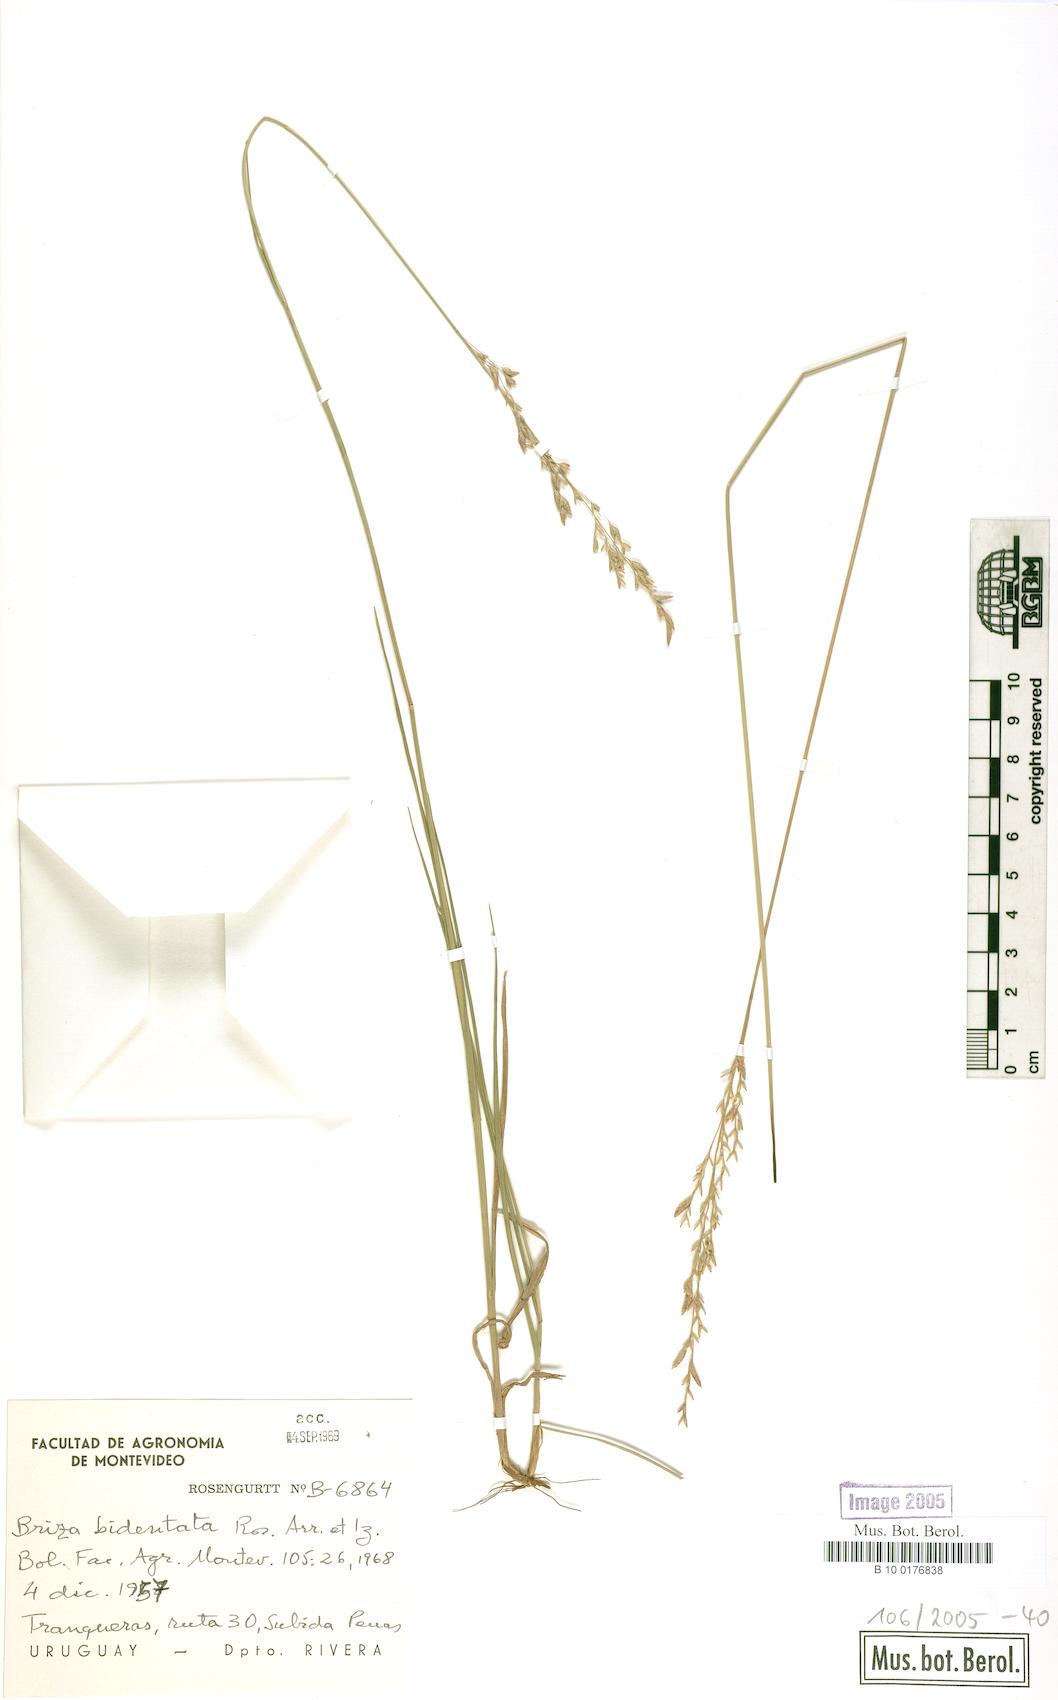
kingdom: Plantae
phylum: Tracheophyta
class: Liliopsida
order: Poales
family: Poaceae
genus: Rhombolytrum
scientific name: Rhombolytrum monandrum
